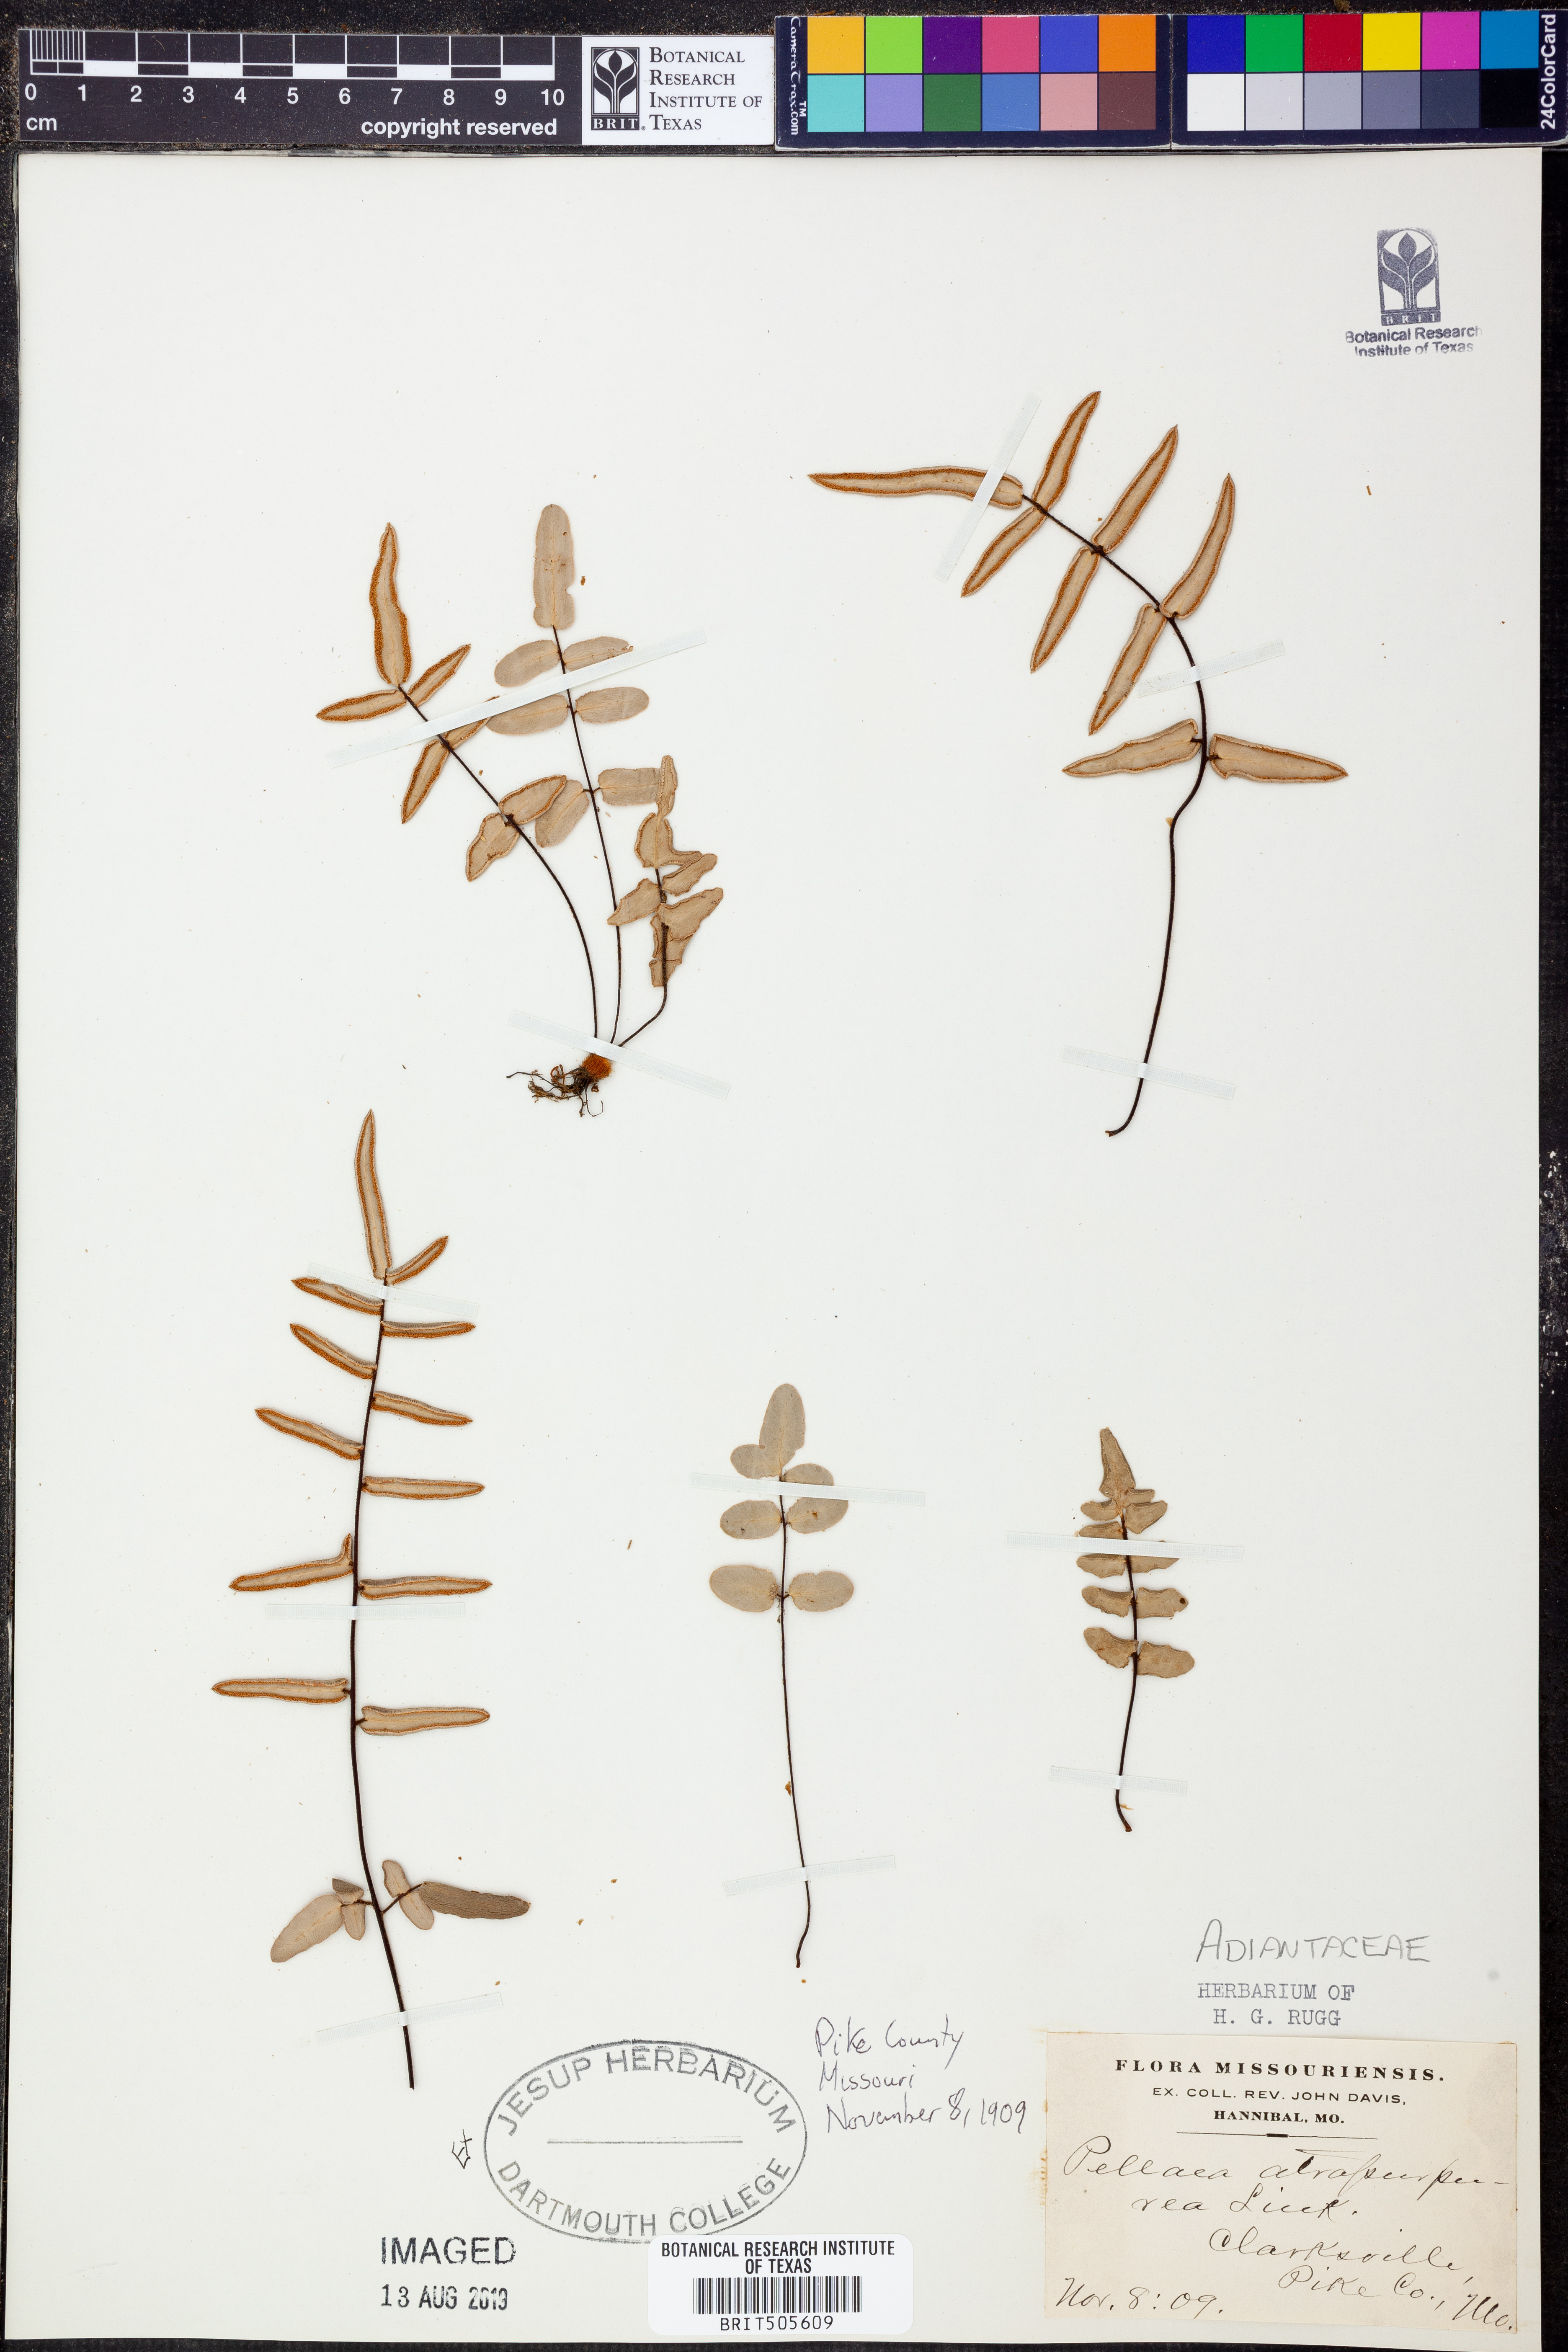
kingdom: Plantae
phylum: Tracheophyta
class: Polypodiopsida
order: Polypodiales
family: Pteridaceae
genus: Pellaea
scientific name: Pellaea atropurpurea
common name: Hairy cliffbrake
